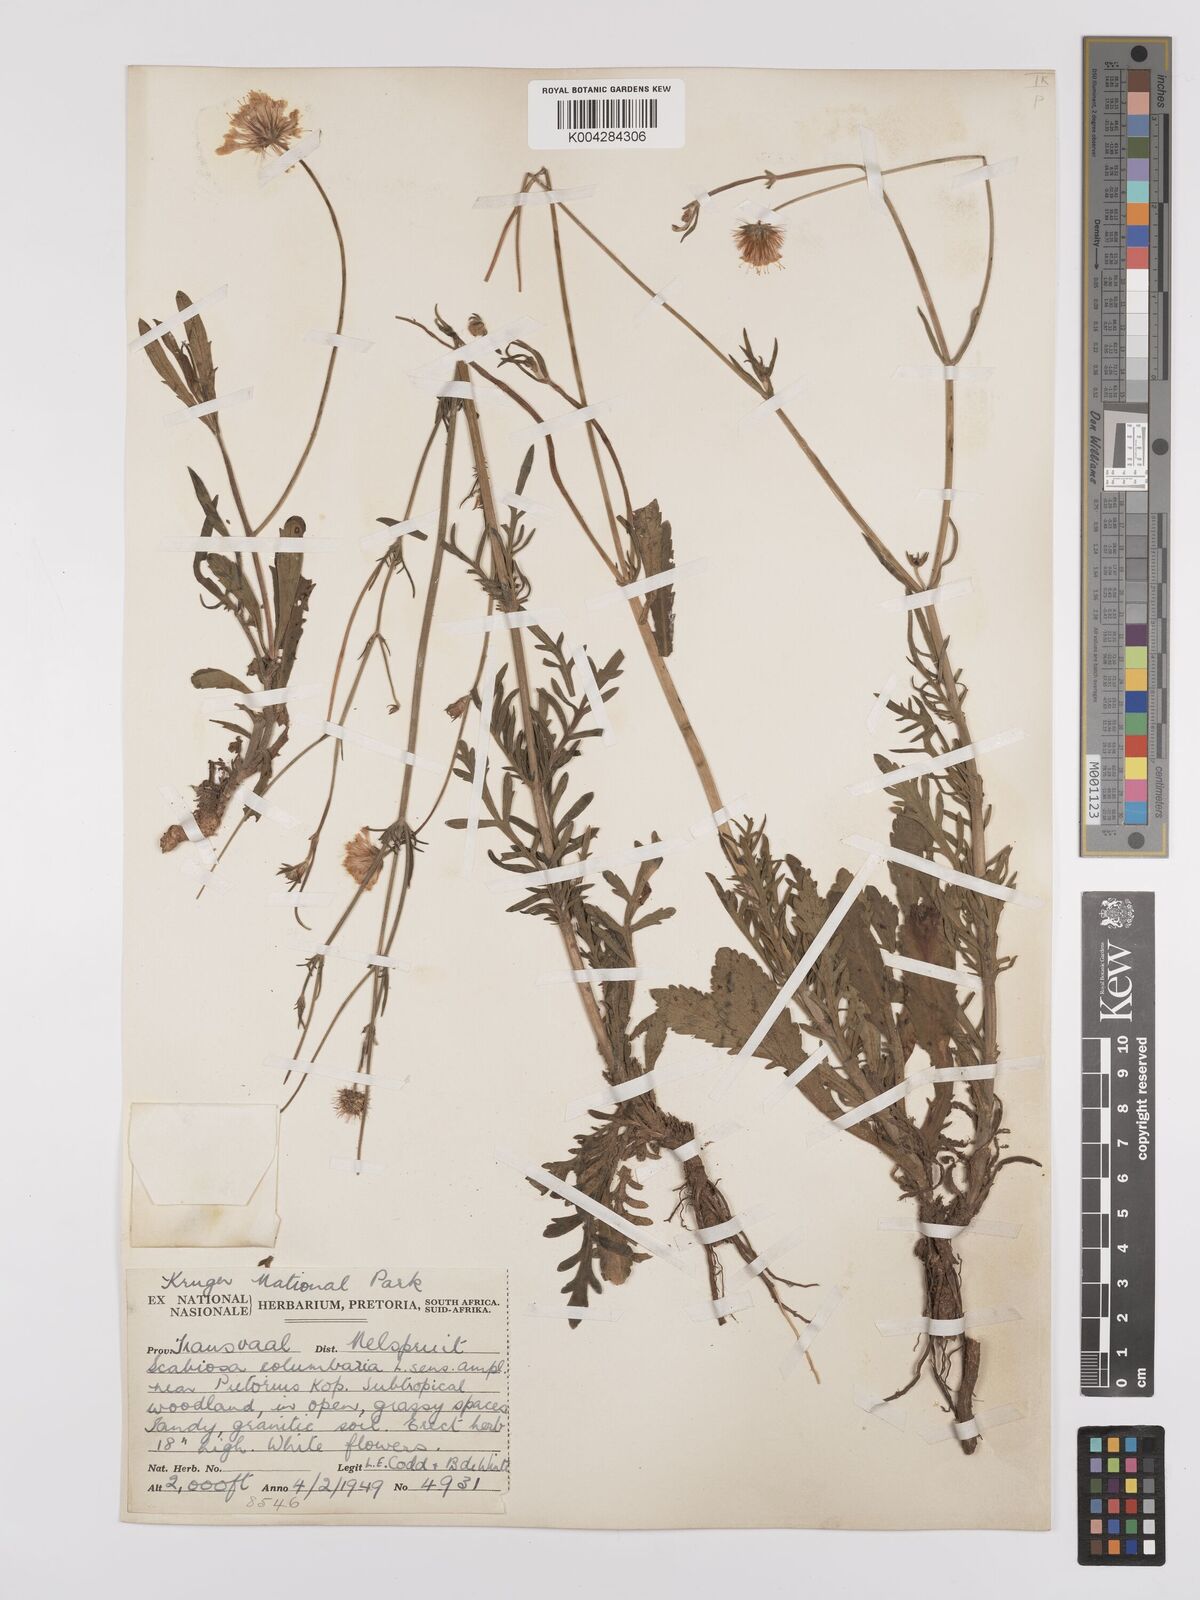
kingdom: Plantae
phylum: Tracheophyta
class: Magnoliopsida
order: Dipsacales
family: Caprifoliaceae
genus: Scabiosa
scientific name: Scabiosa austroafricana
